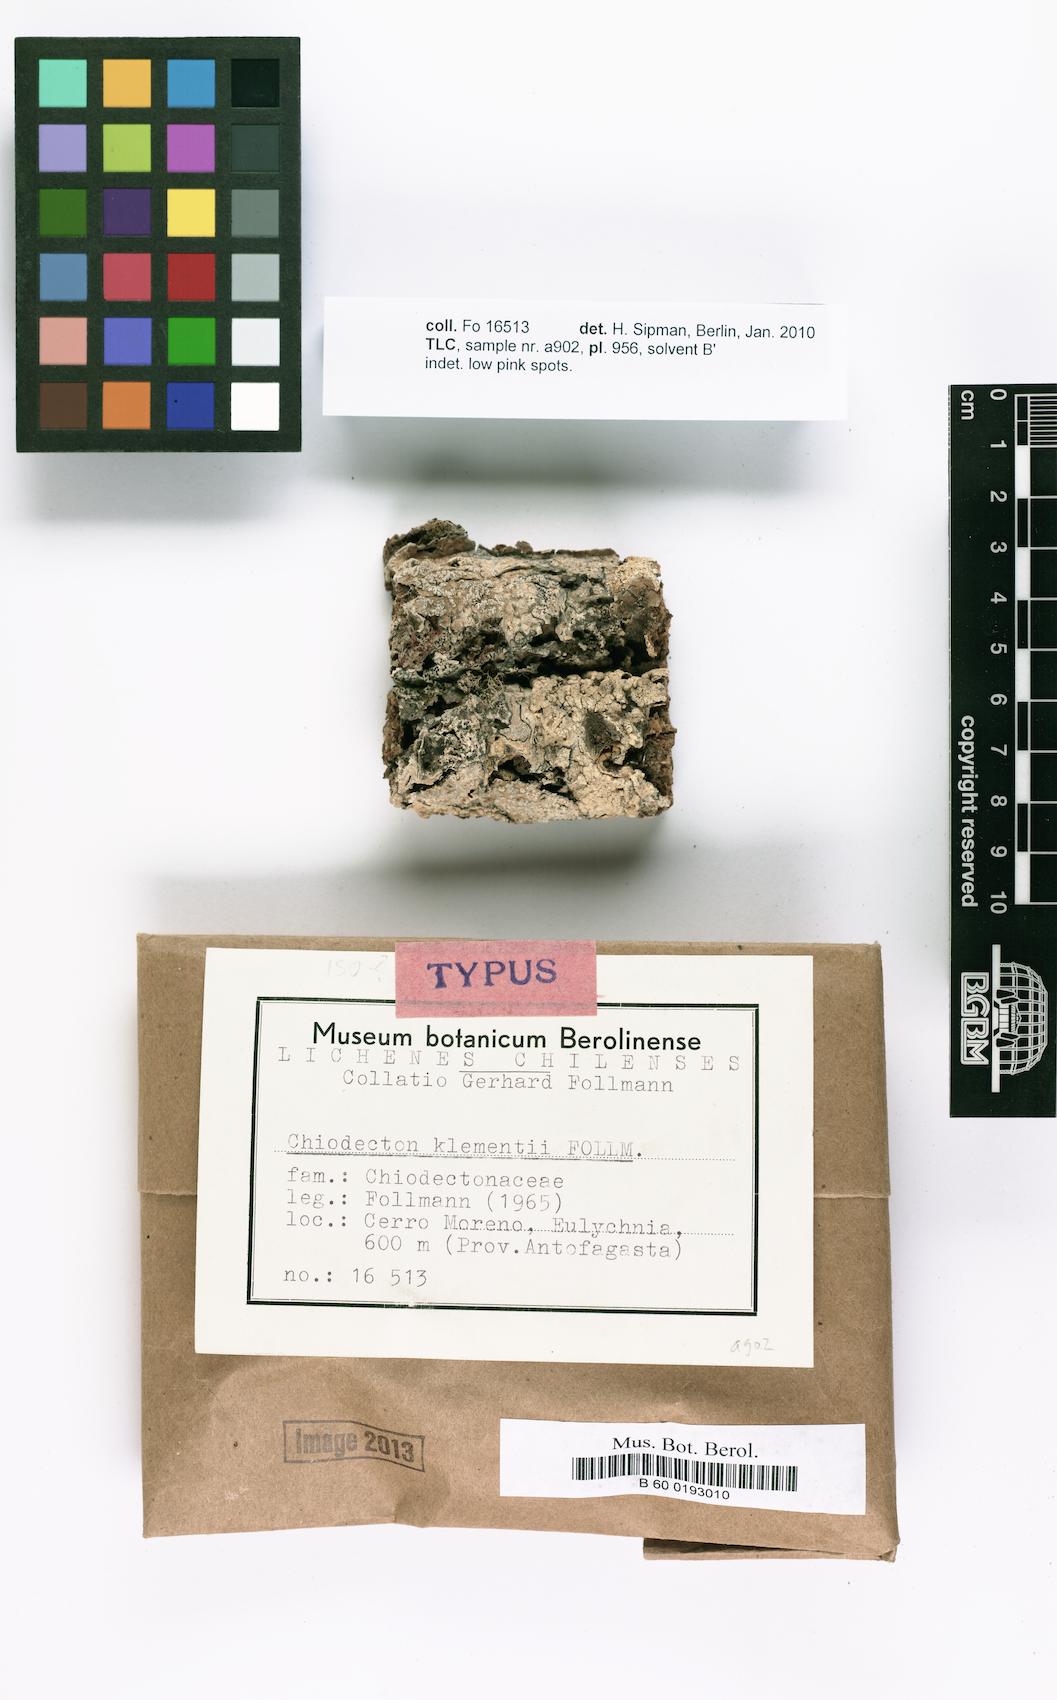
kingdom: Fungi
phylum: Ascomycota
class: Arthoniomycetes
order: Arthoniales
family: Roccellographaceae
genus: Fulvophyton
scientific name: Fulvophyton klementii
